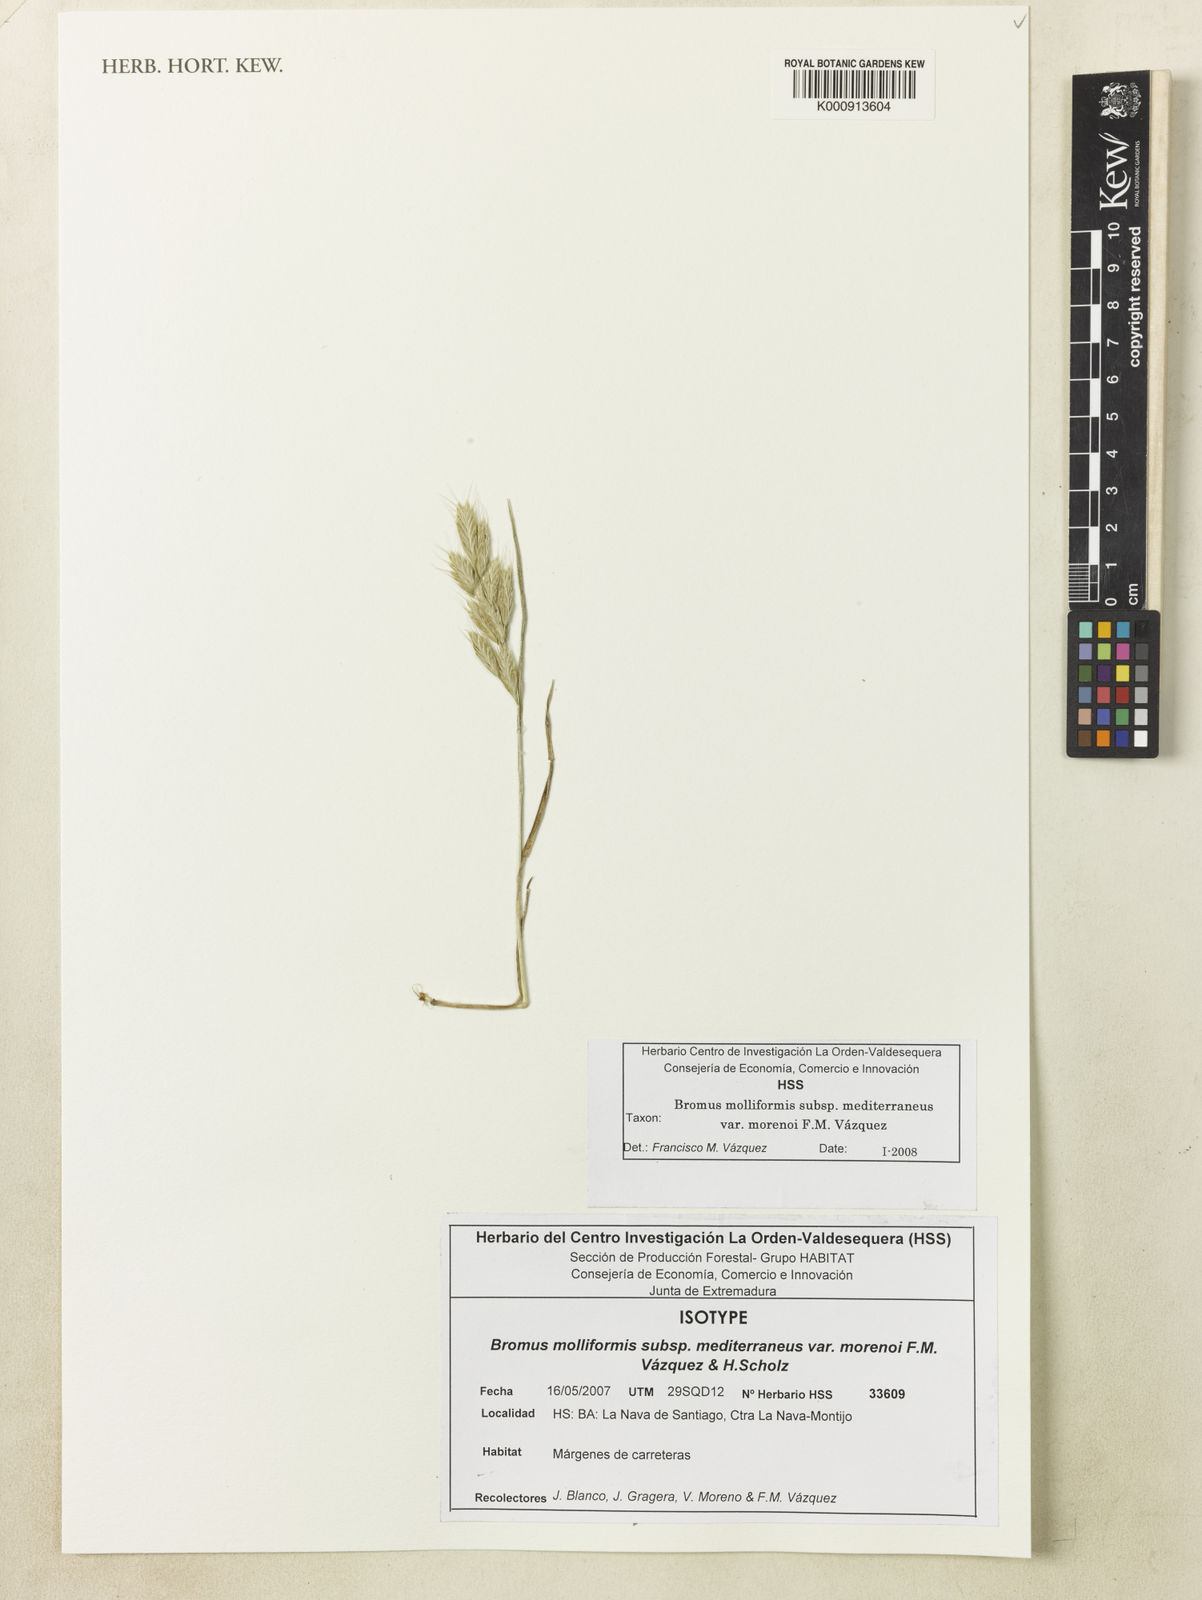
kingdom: Plantae
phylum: Tracheophyta
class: Liliopsida
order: Poales
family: Poaceae
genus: Bromus
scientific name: Bromus hordeaceus
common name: Soft brome
